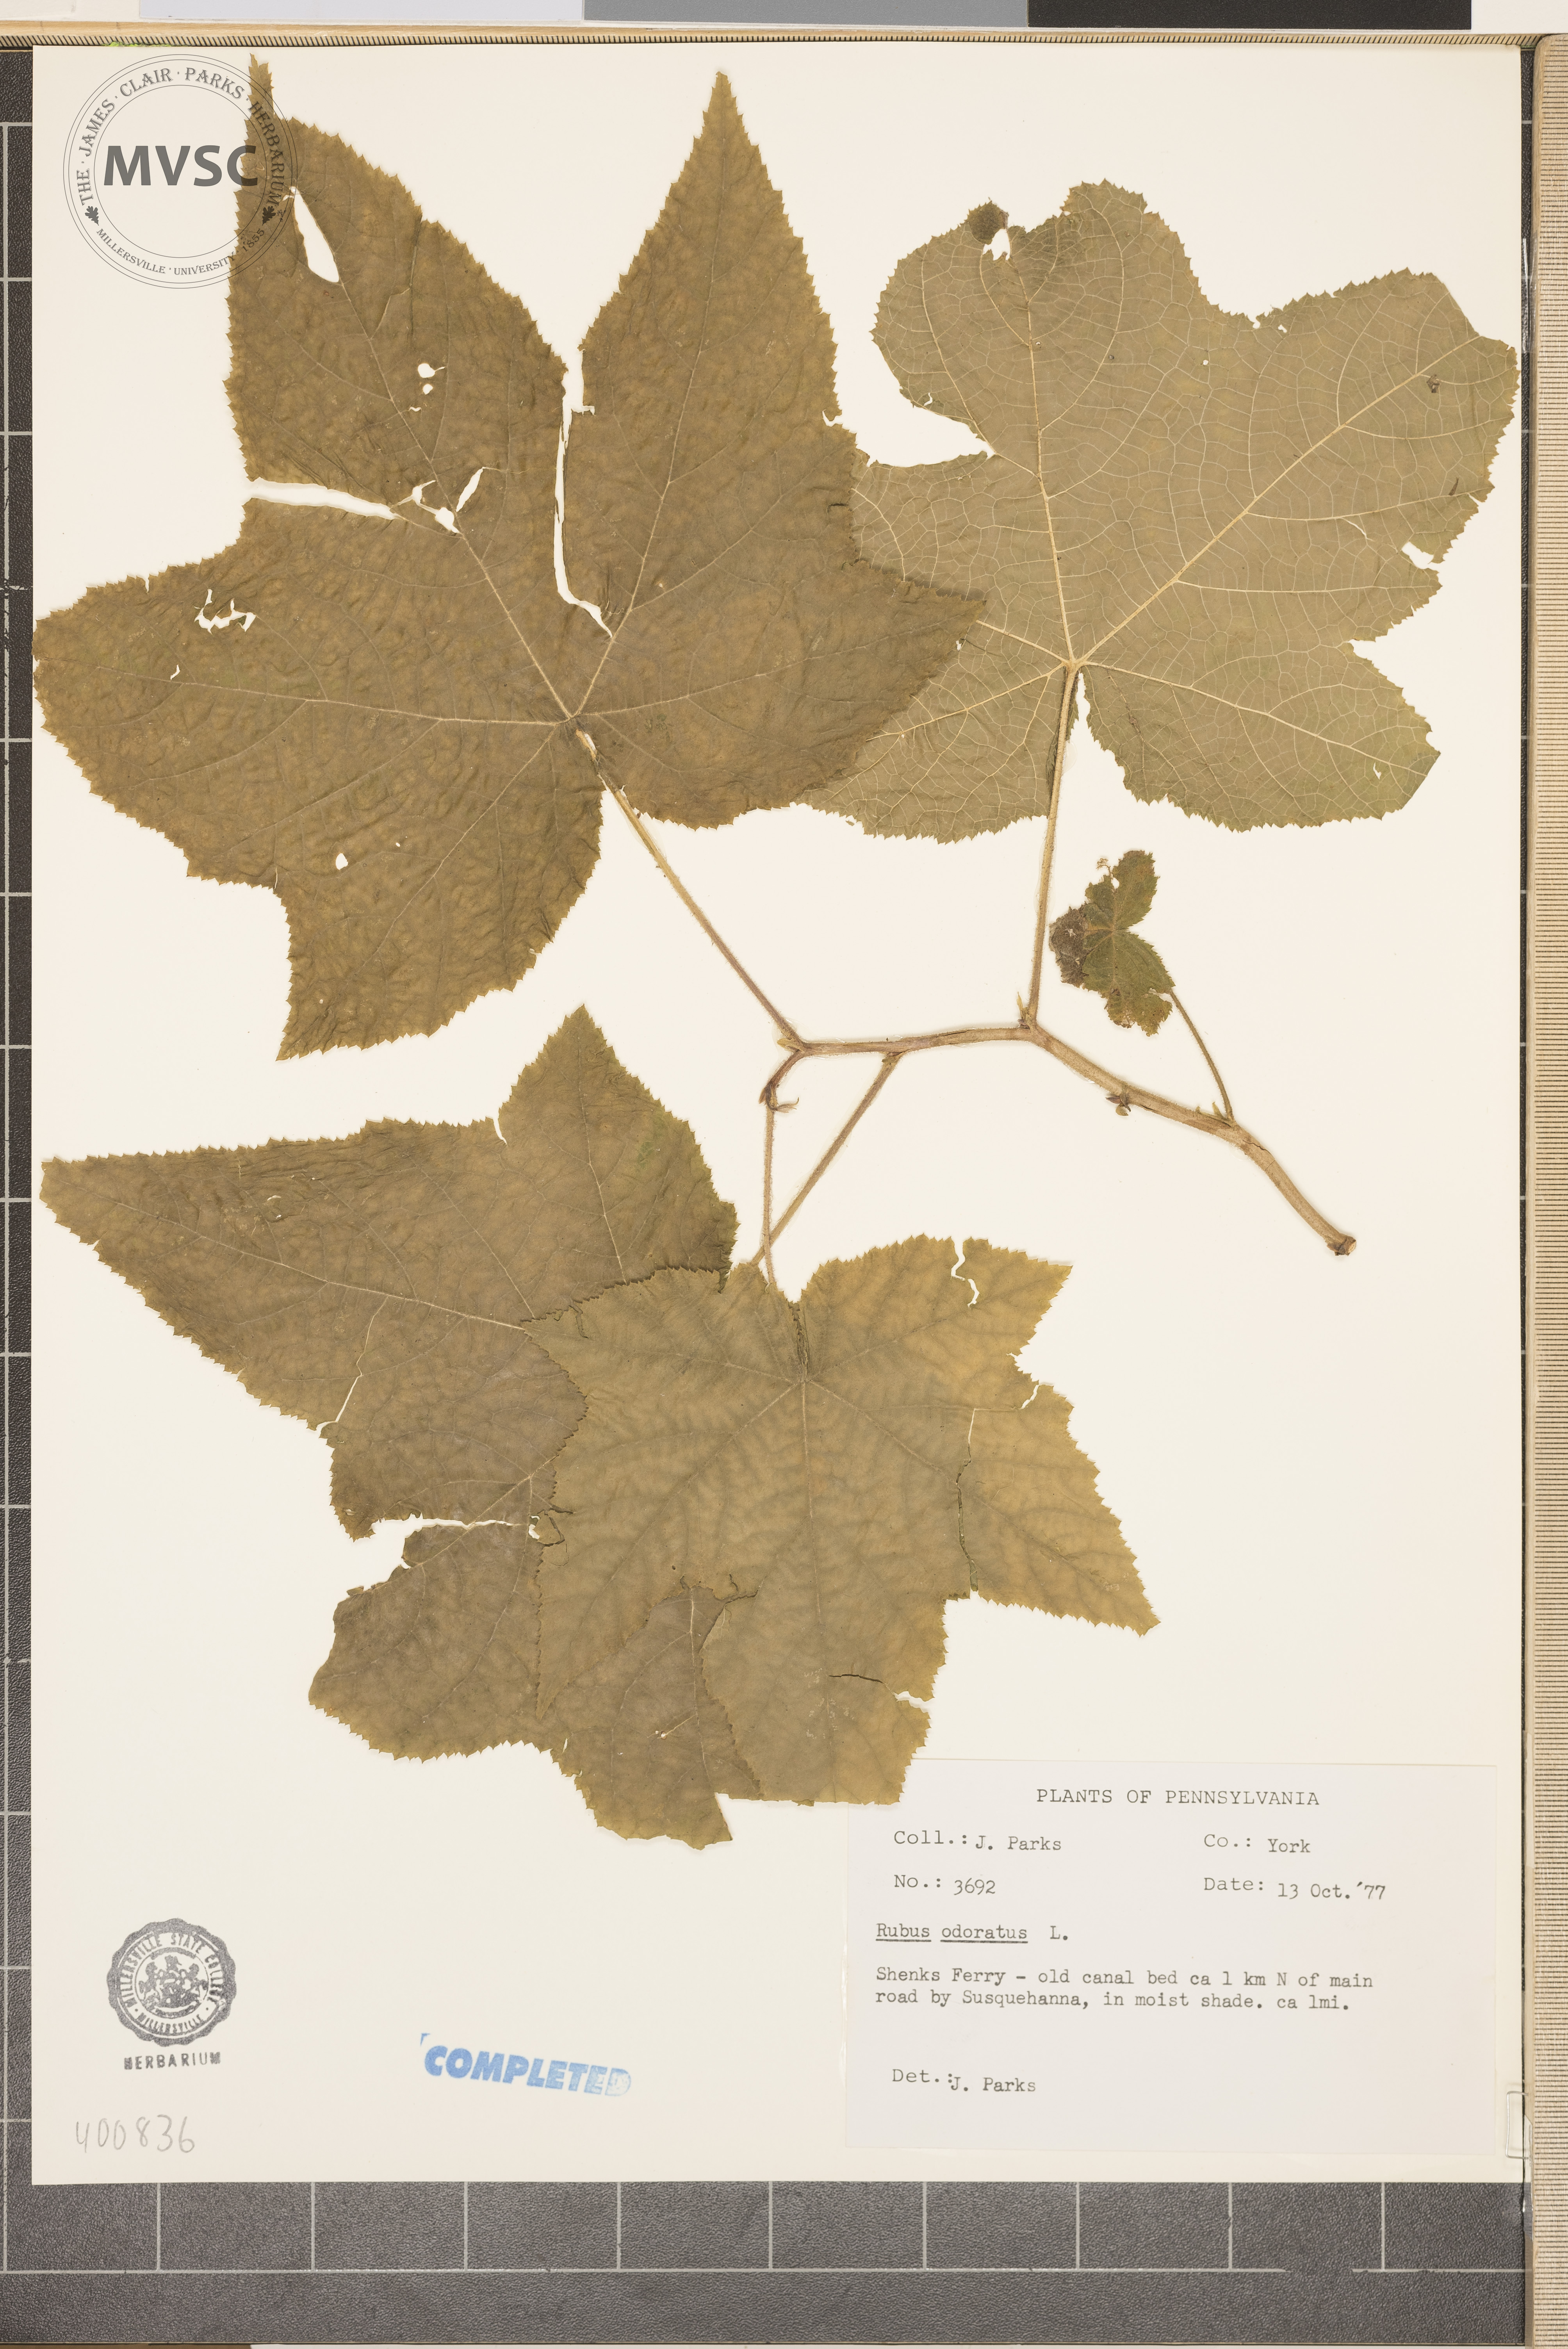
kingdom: Plantae
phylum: Tracheophyta
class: Magnoliopsida
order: Rosales
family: Rosaceae
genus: Rubus
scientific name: Rubus odoratus
